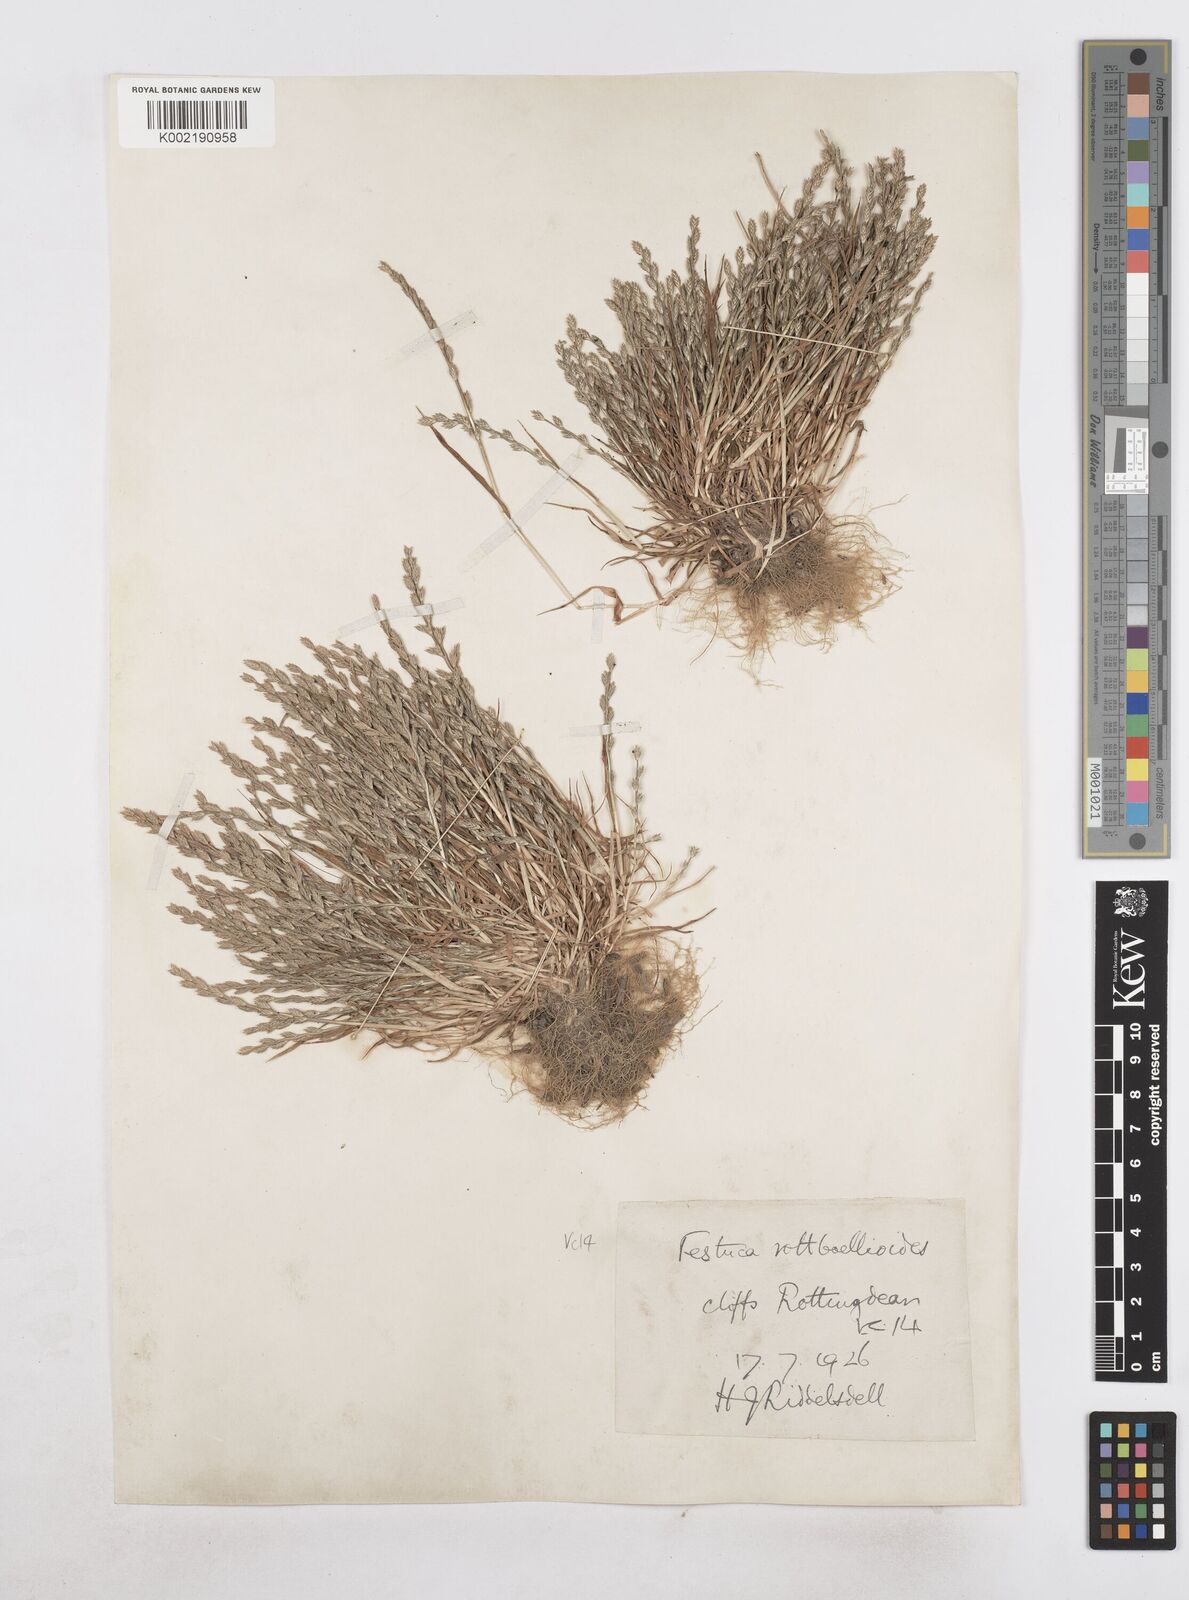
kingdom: Plantae
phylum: Tracheophyta
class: Liliopsida
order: Poales
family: Poaceae
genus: Catapodium
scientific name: Catapodium marinum
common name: Sea fern-grass
